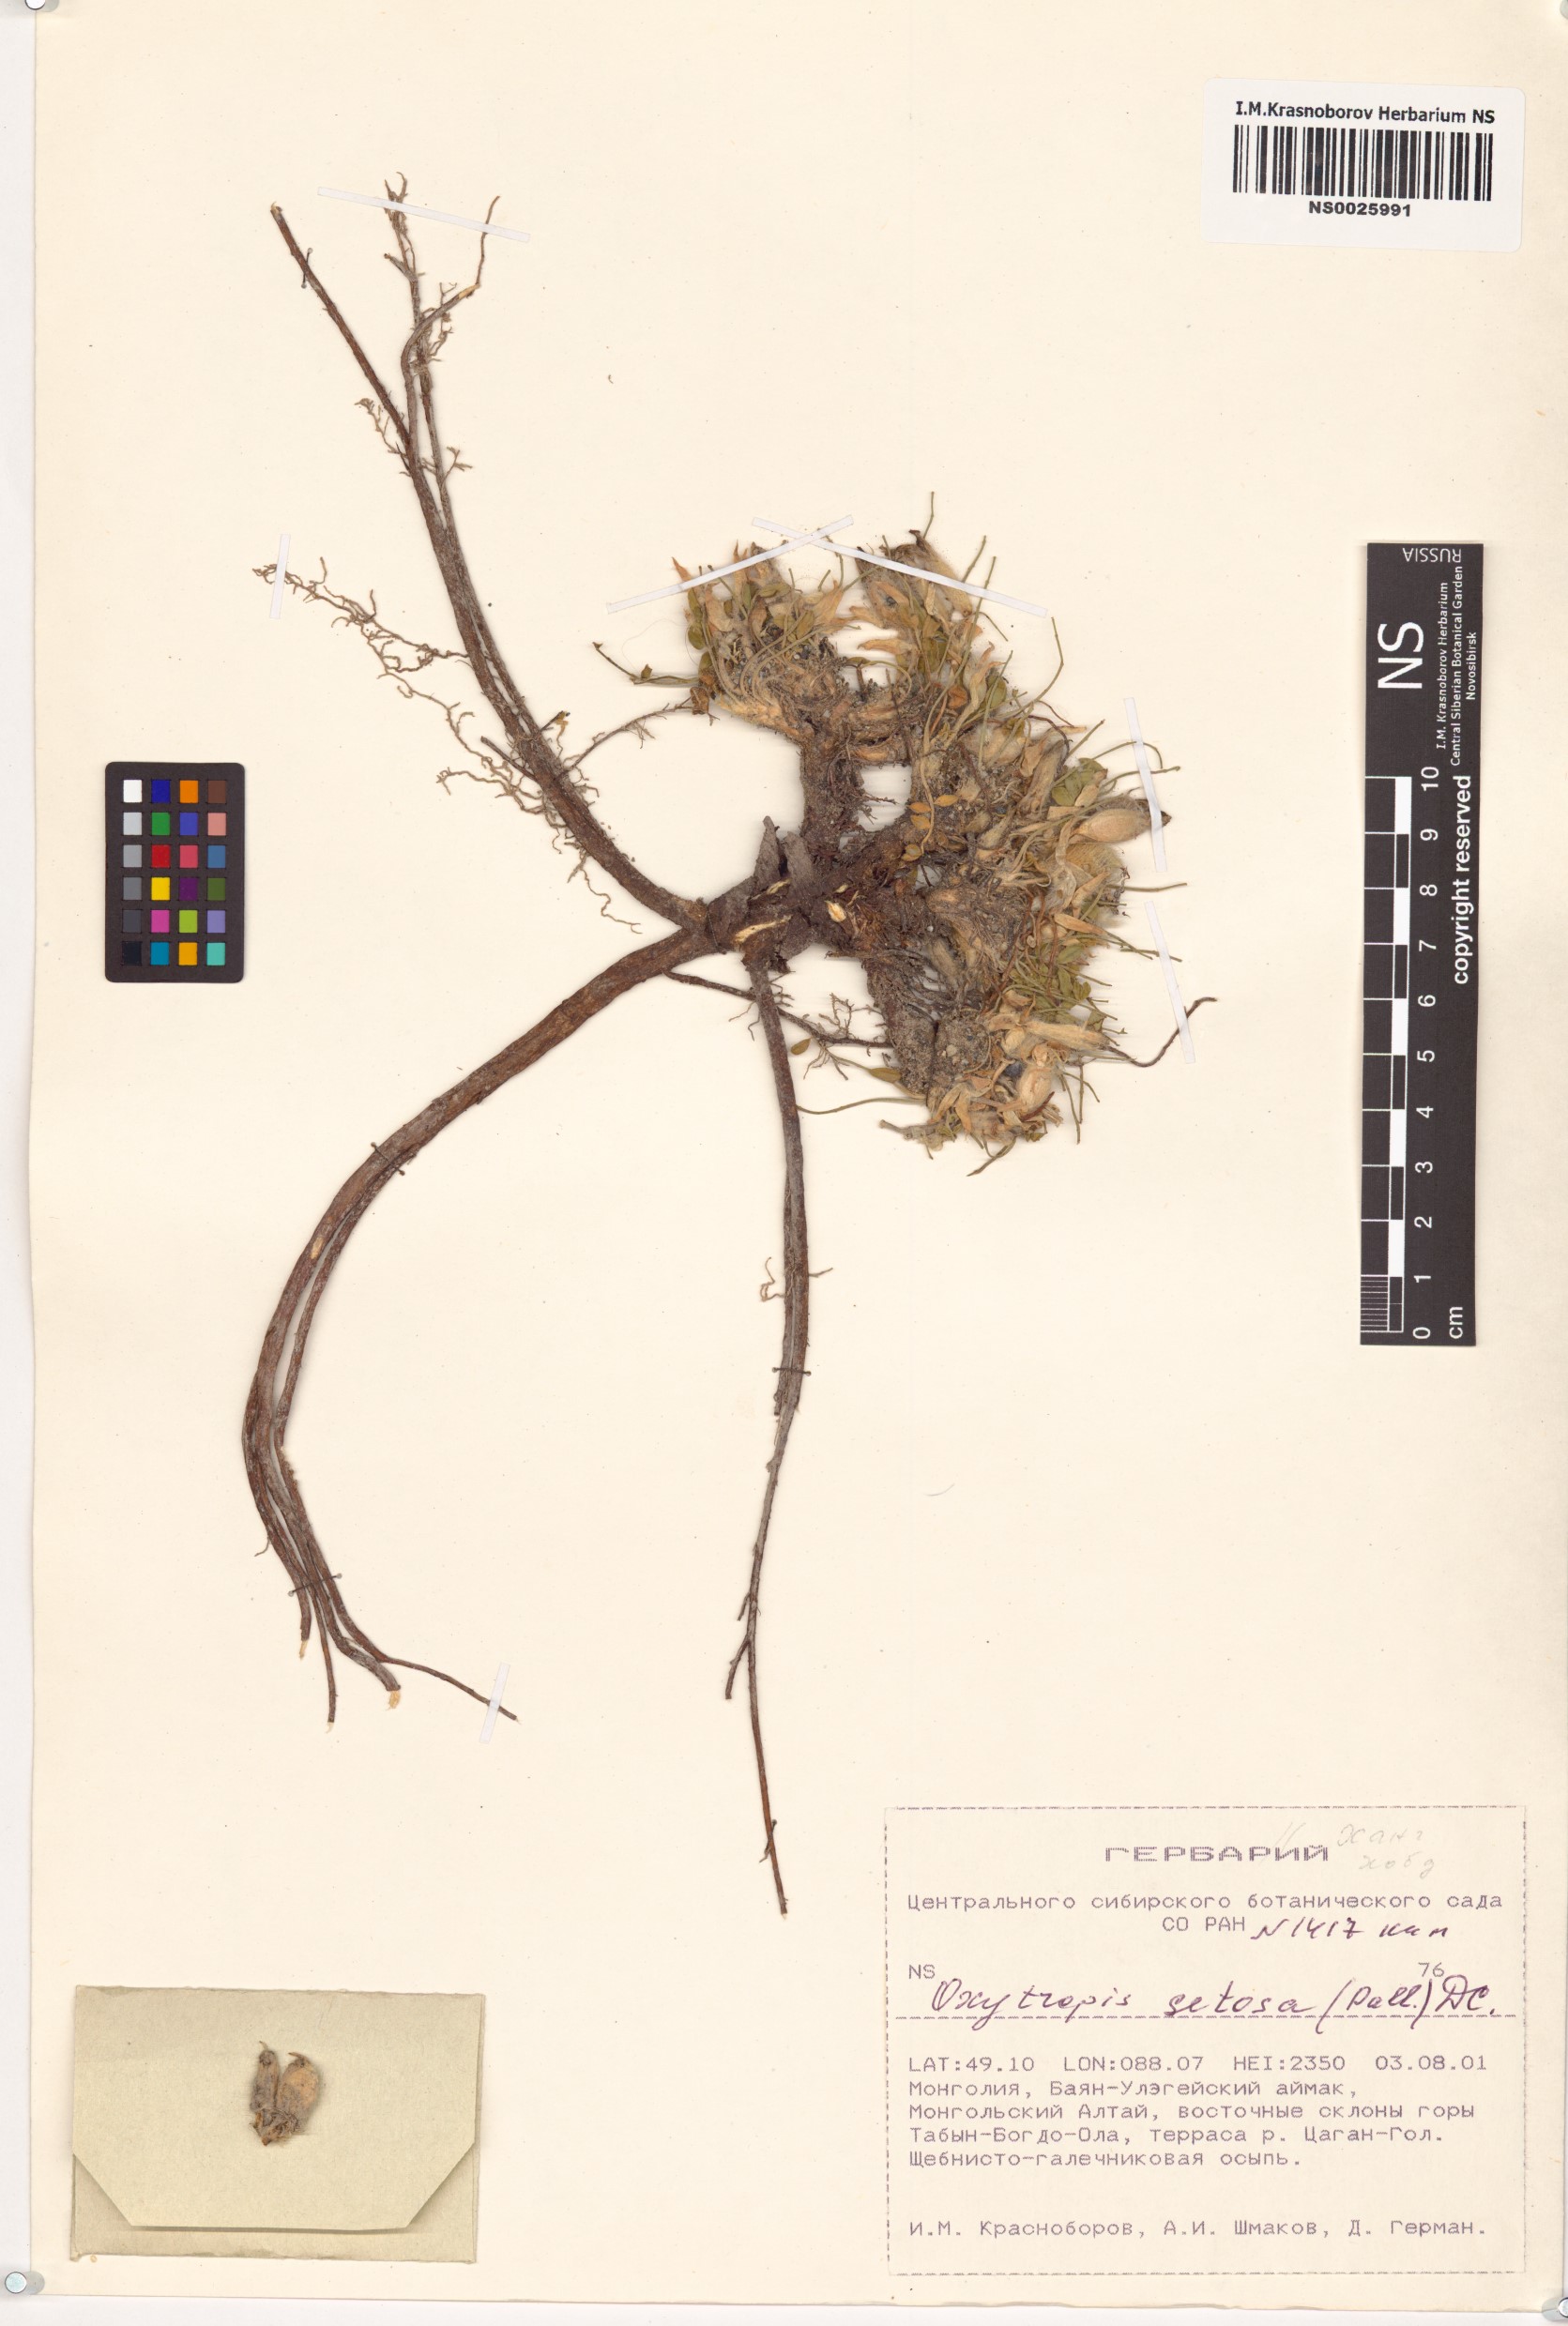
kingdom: Plantae
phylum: Tracheophyta
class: Magnoliopsida
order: Fabales
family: Fabaceae
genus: Oxytropis
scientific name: Oxytropis setosa
